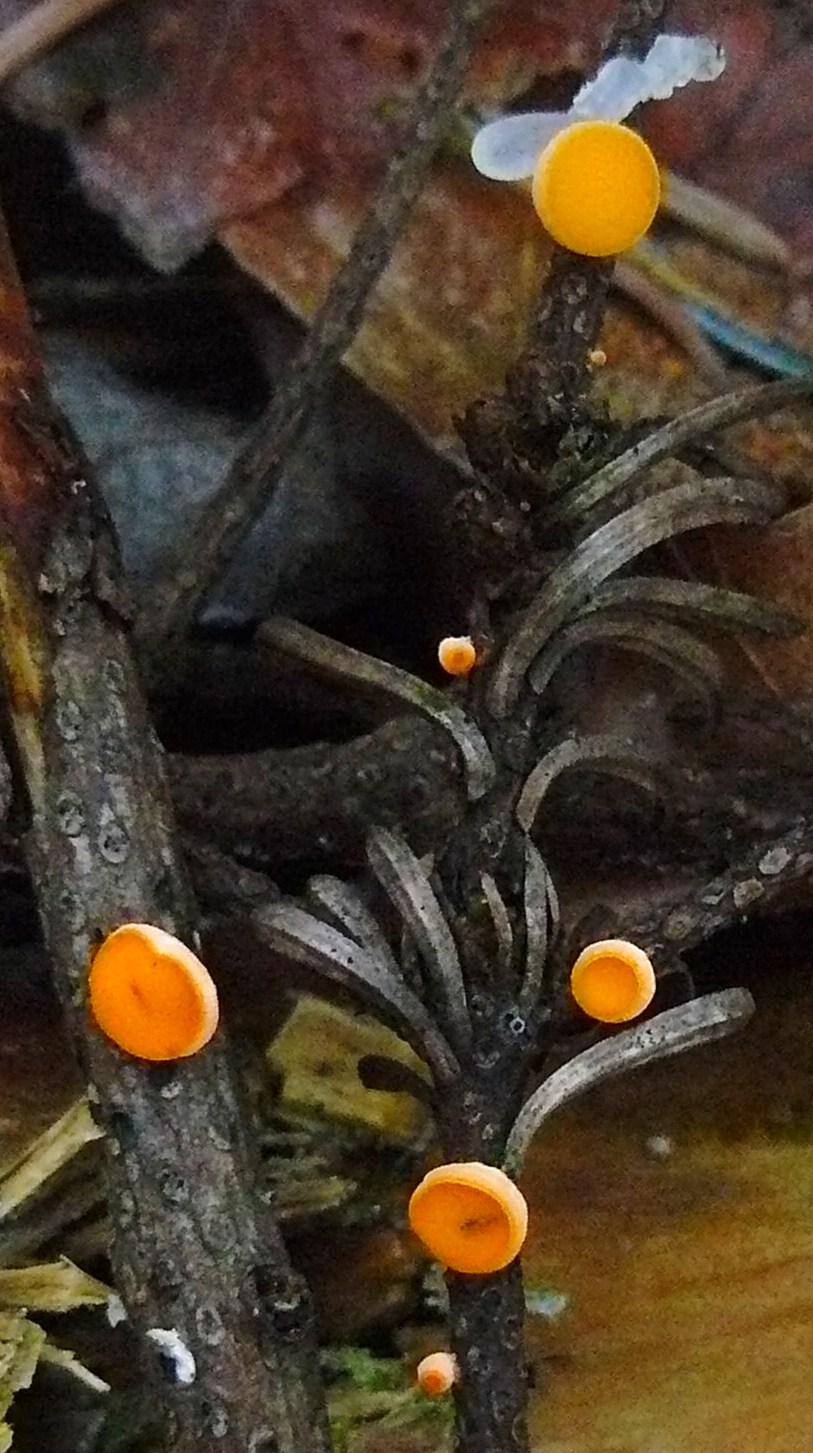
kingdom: Fungi
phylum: Ascomycota
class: Pezizomycetes
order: Pezizales
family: Sarcoscyphaceae
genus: Pithya
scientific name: Pithya vulgaris
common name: stor dukatbæger
